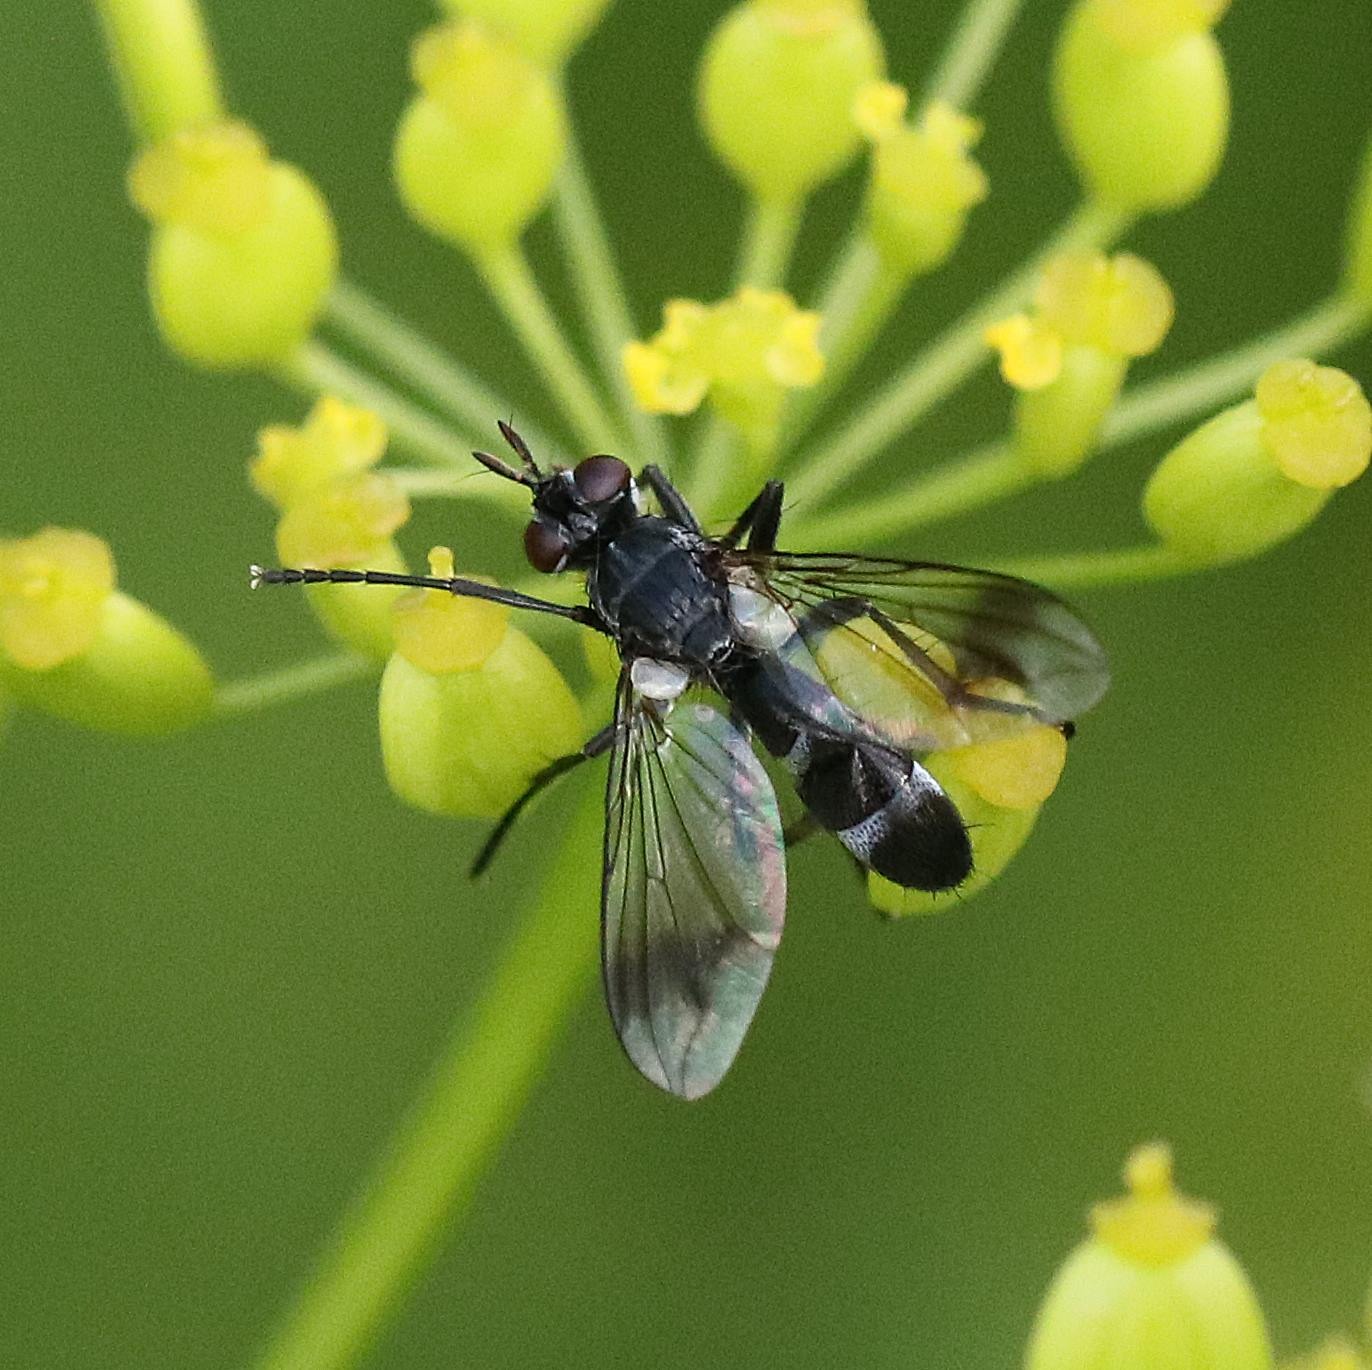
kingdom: Animalia
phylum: Arthropoda
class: Insecta
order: Diptera
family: Tachinidae
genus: Lophosia
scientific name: Lophosia fasciata
